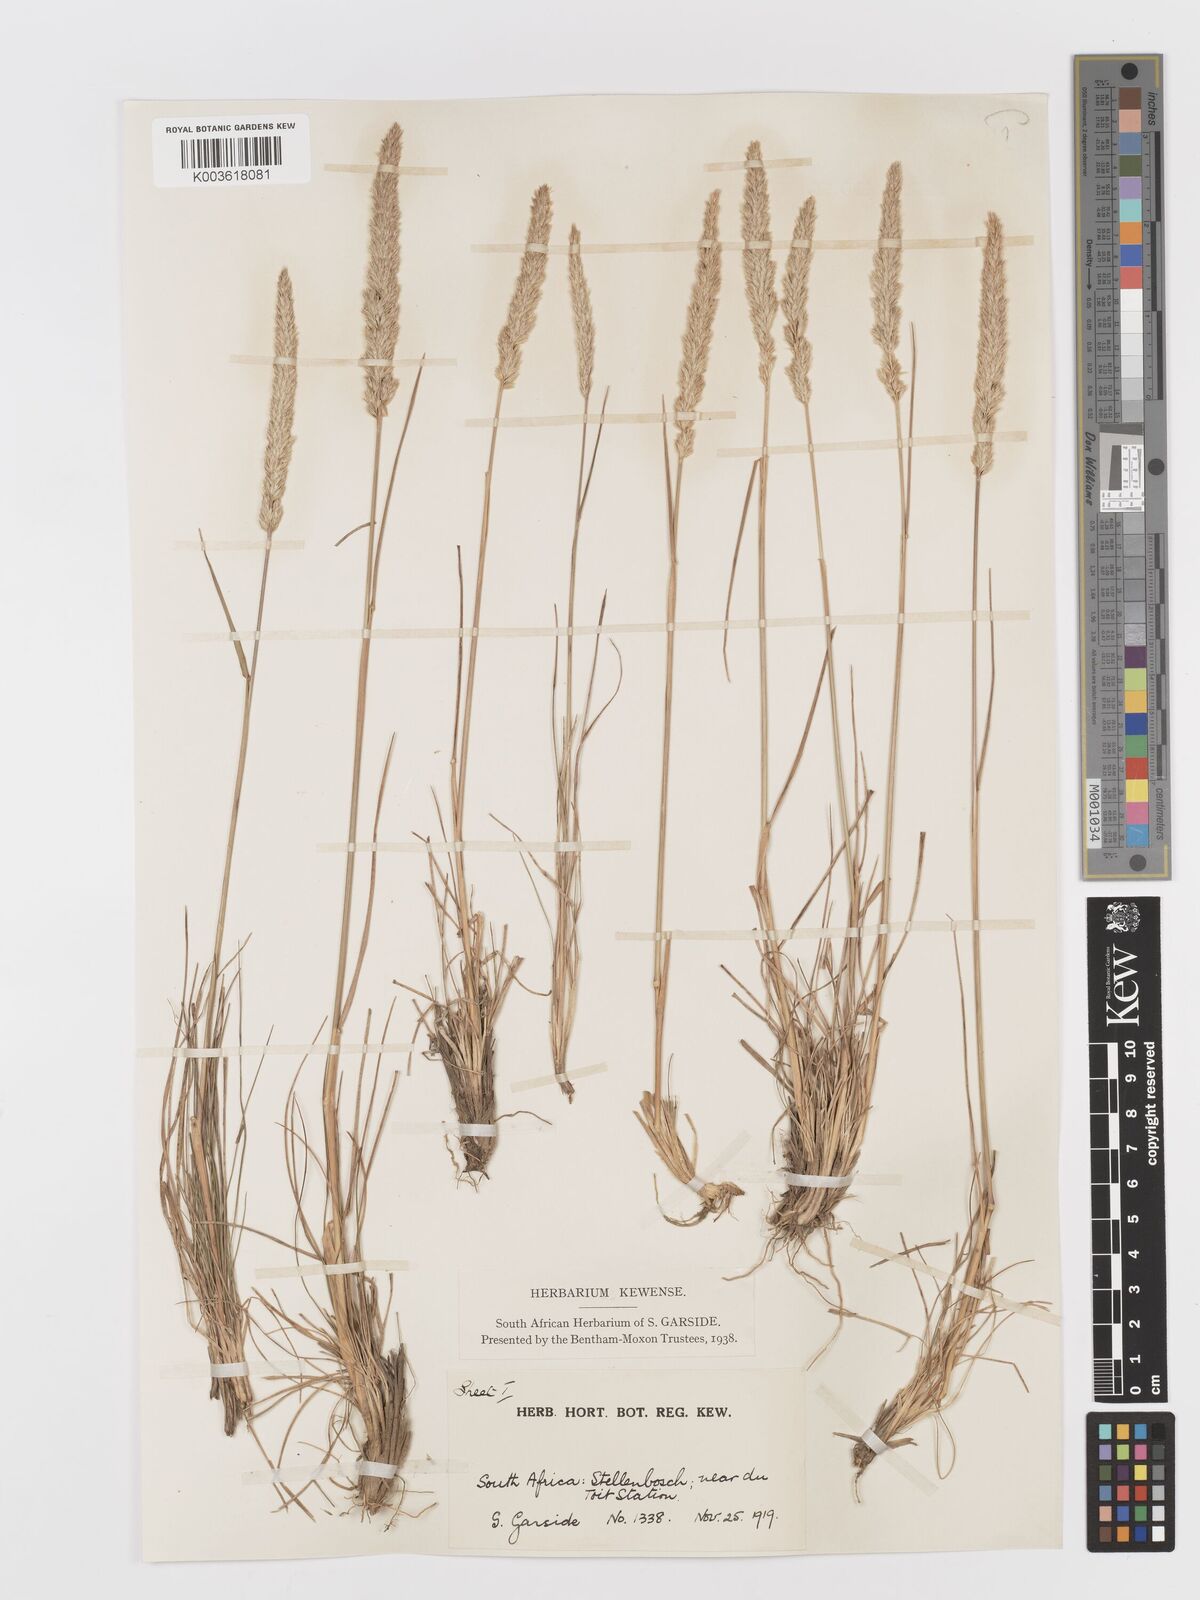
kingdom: Plantae
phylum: Tracheophyta
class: Liliopsida
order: Poales
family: Poaceae
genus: Koeleria
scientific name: Koeleria capensis
